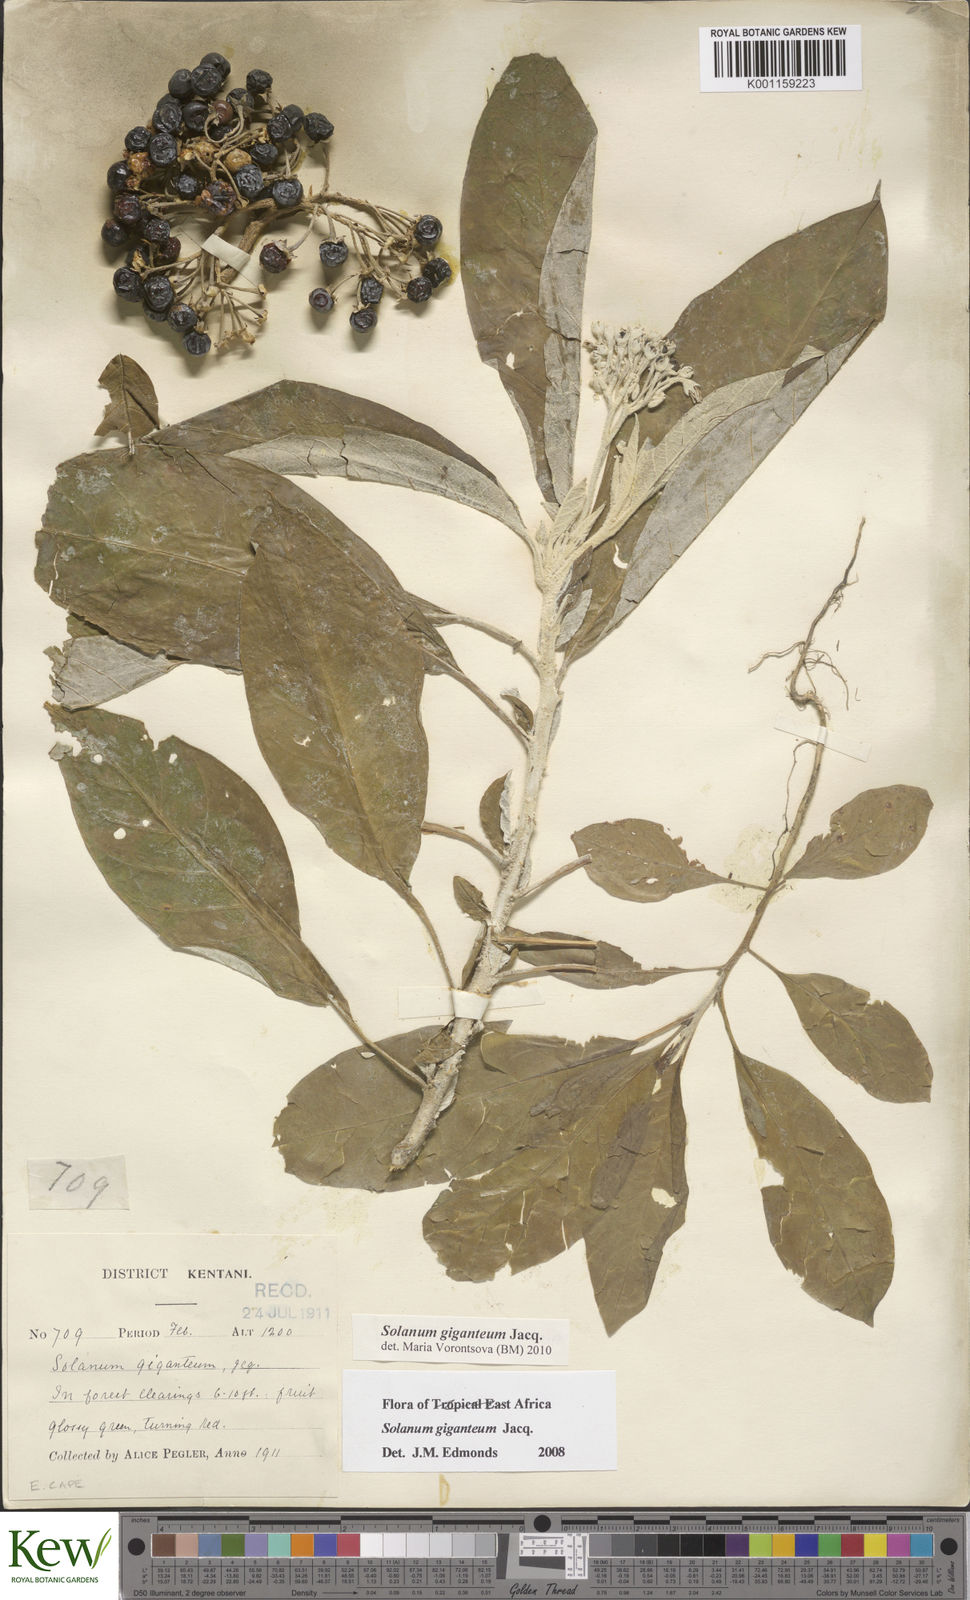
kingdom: Plantae
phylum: Tracheophyta
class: Magnoliopsida
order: Solanales
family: Solanaceae
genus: Solanum
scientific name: Solanum giganteum
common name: Healing-leaf-tree
